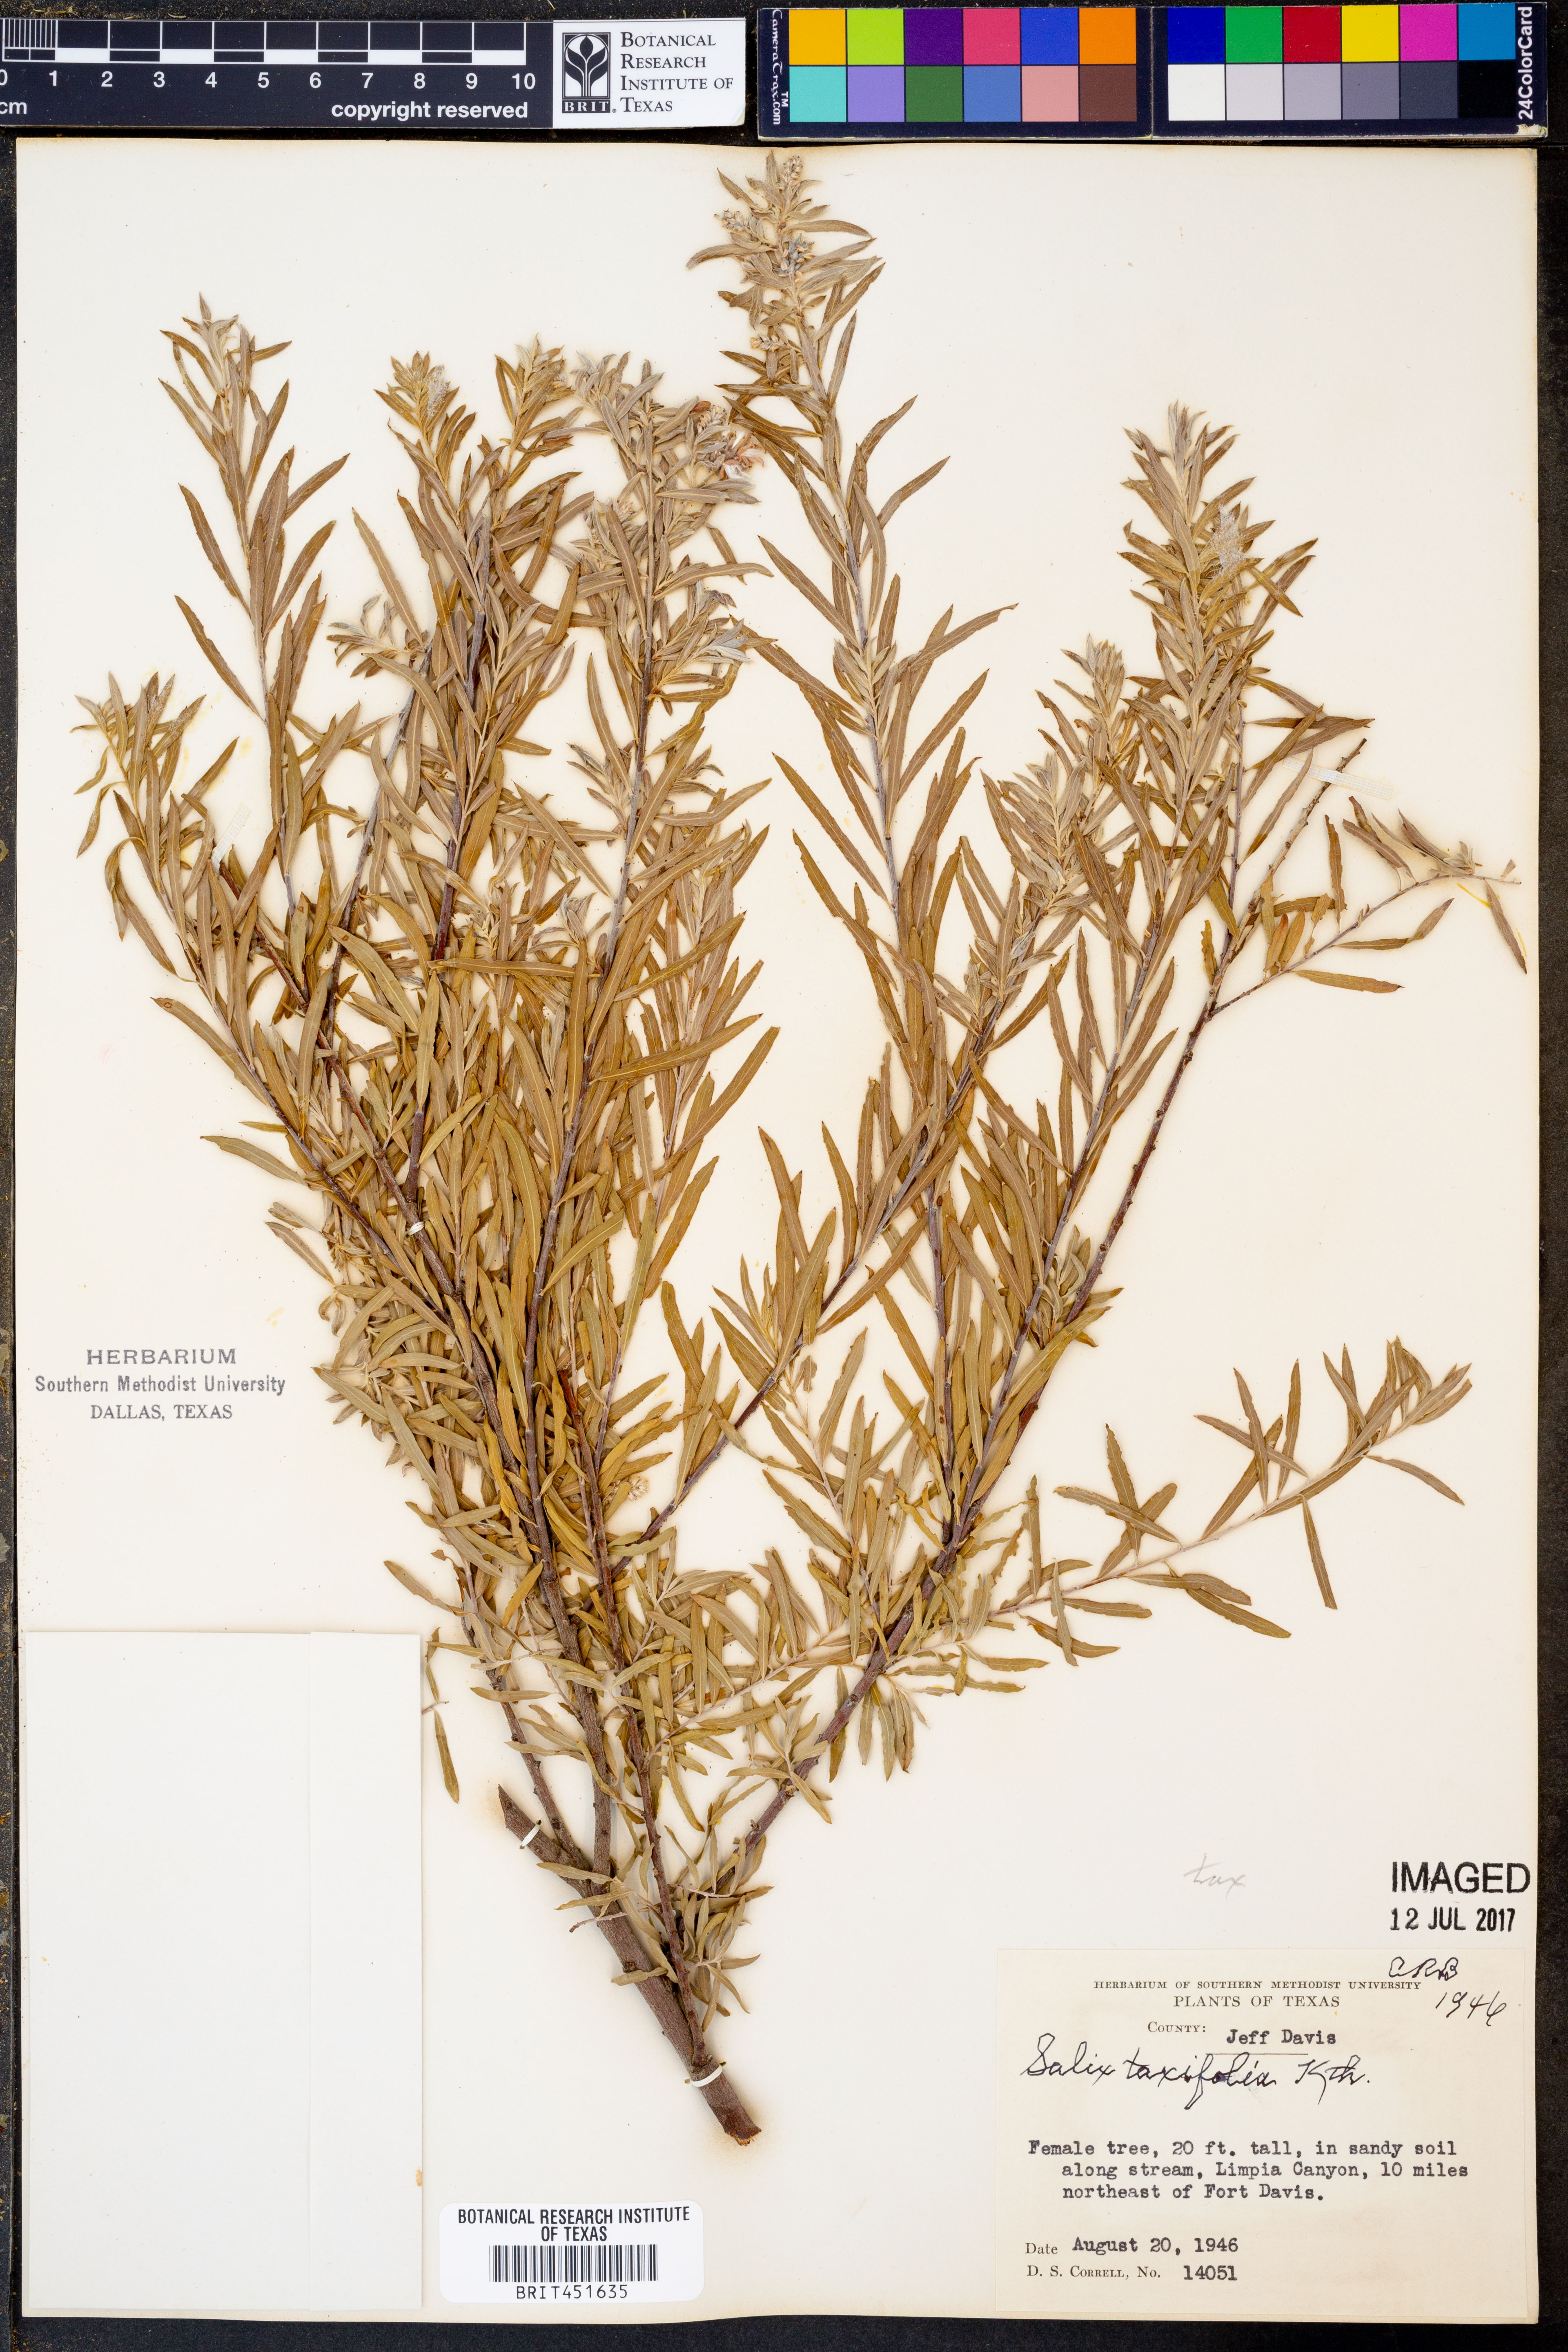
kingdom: Plantae
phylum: Tracheophyta
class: Magnoliopsida
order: Malpighiales
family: Salicaceae
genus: Salix
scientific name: Salix taxifolia
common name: Yew-leaf willow
